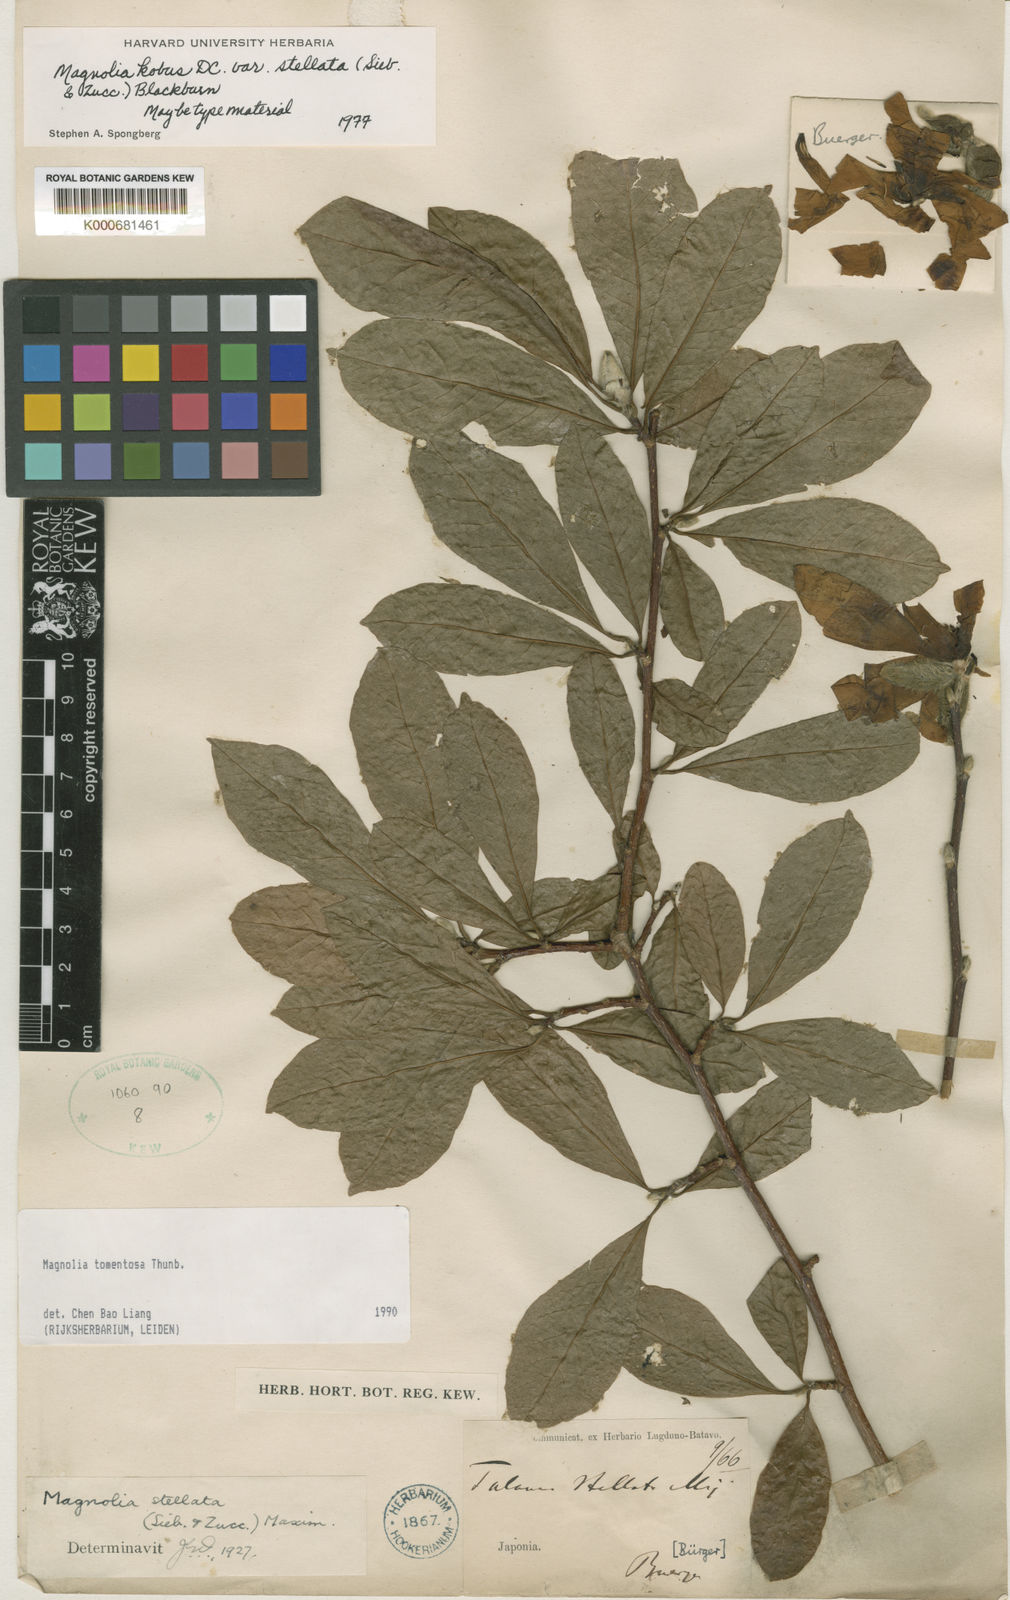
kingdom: Plantae
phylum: Tracheophyta
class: Magnoliopsida
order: Magnoliales
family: Magnoliaceae
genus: Magnolia
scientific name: Magnolia stellata
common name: Star magnolia
